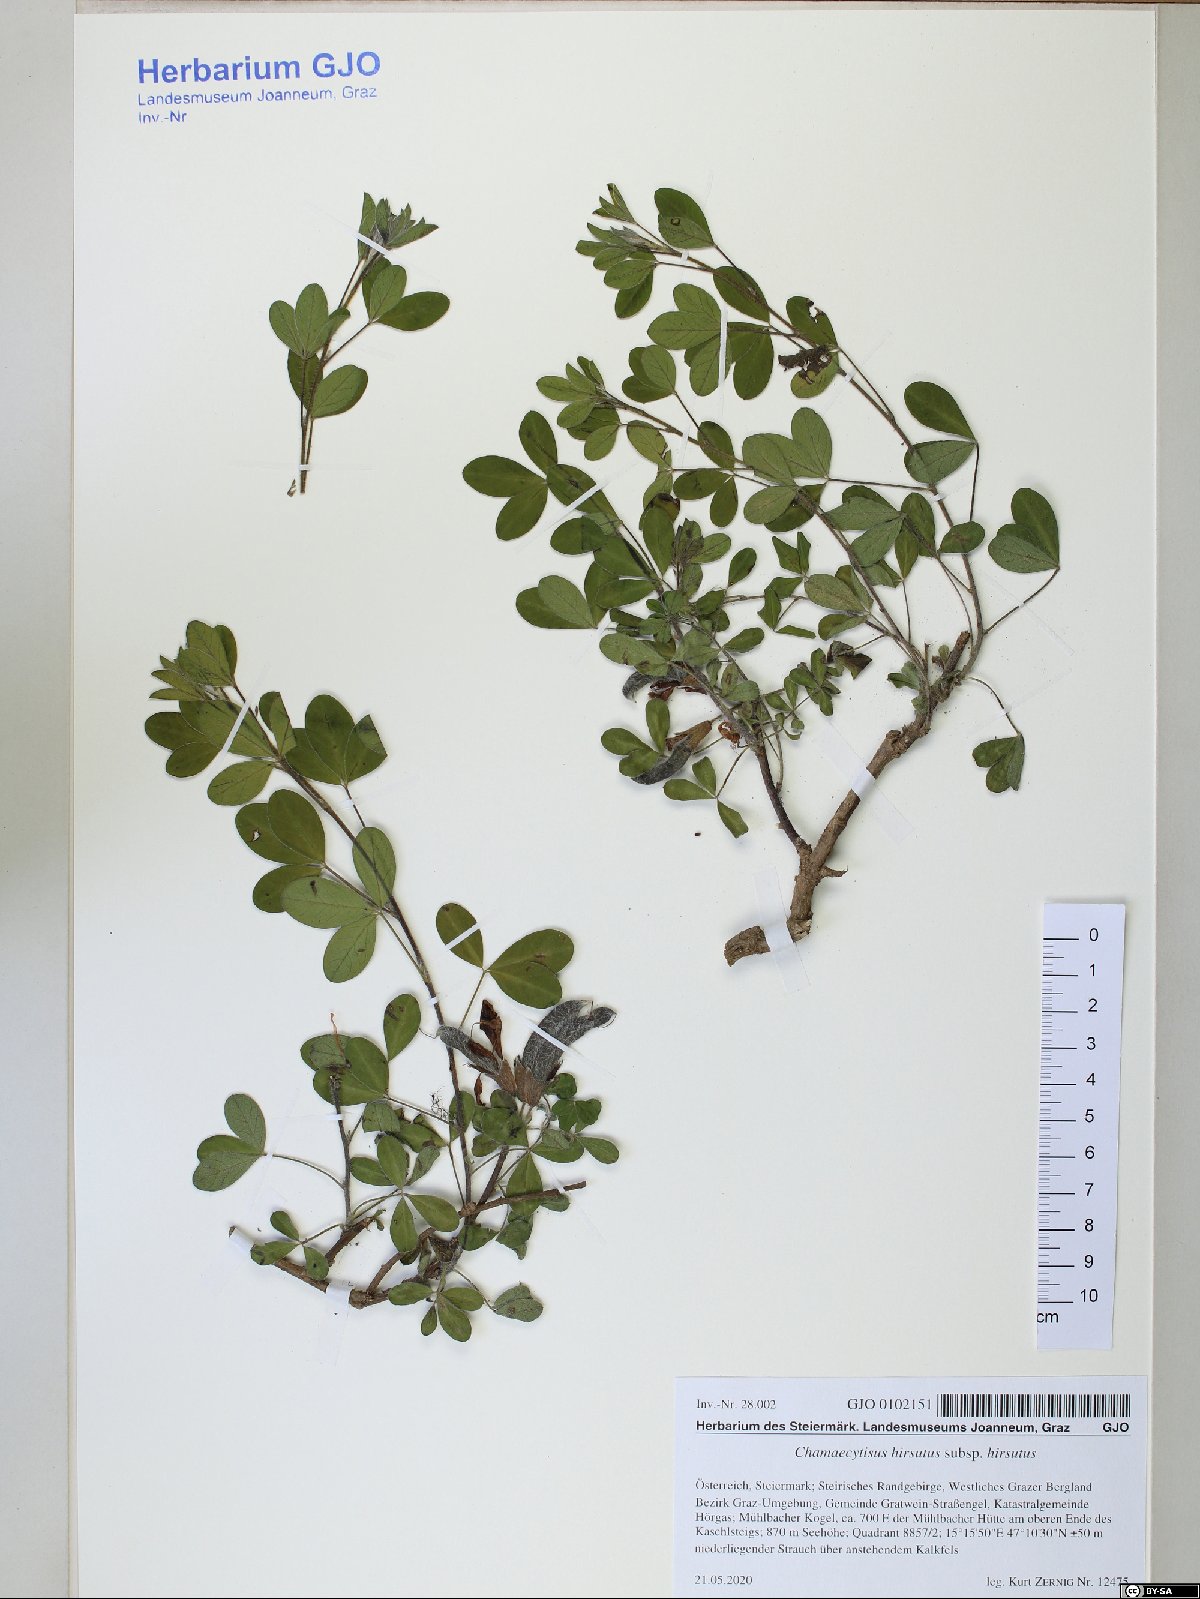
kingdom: Plantae
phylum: Tracheophyta
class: Magnoliopsida
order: Fabales
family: Fabaceae
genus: Chamaecytisus
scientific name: Chamaecytisus hirsutus
